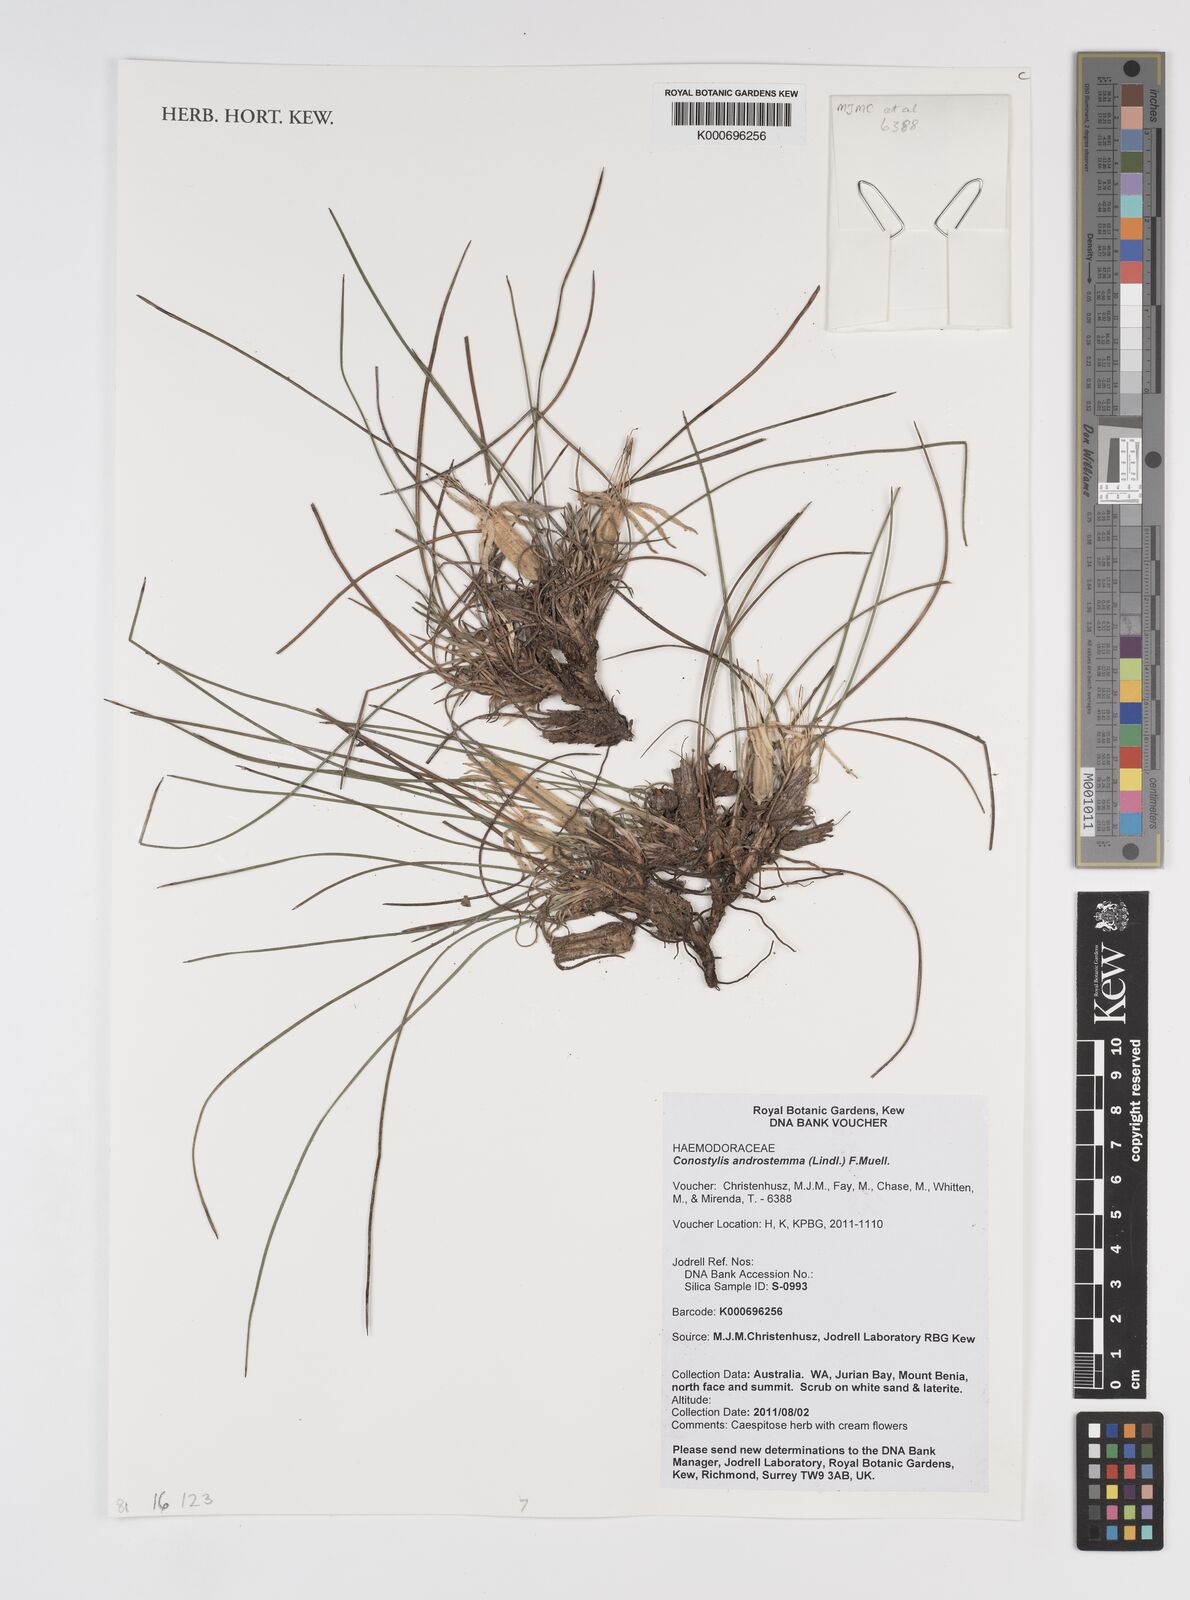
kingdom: Plantae
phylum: Tracheophyta
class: Liliopsida
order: Commelinales
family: Haemodoraceae
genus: Conostylis
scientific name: Conostylis androstemma
